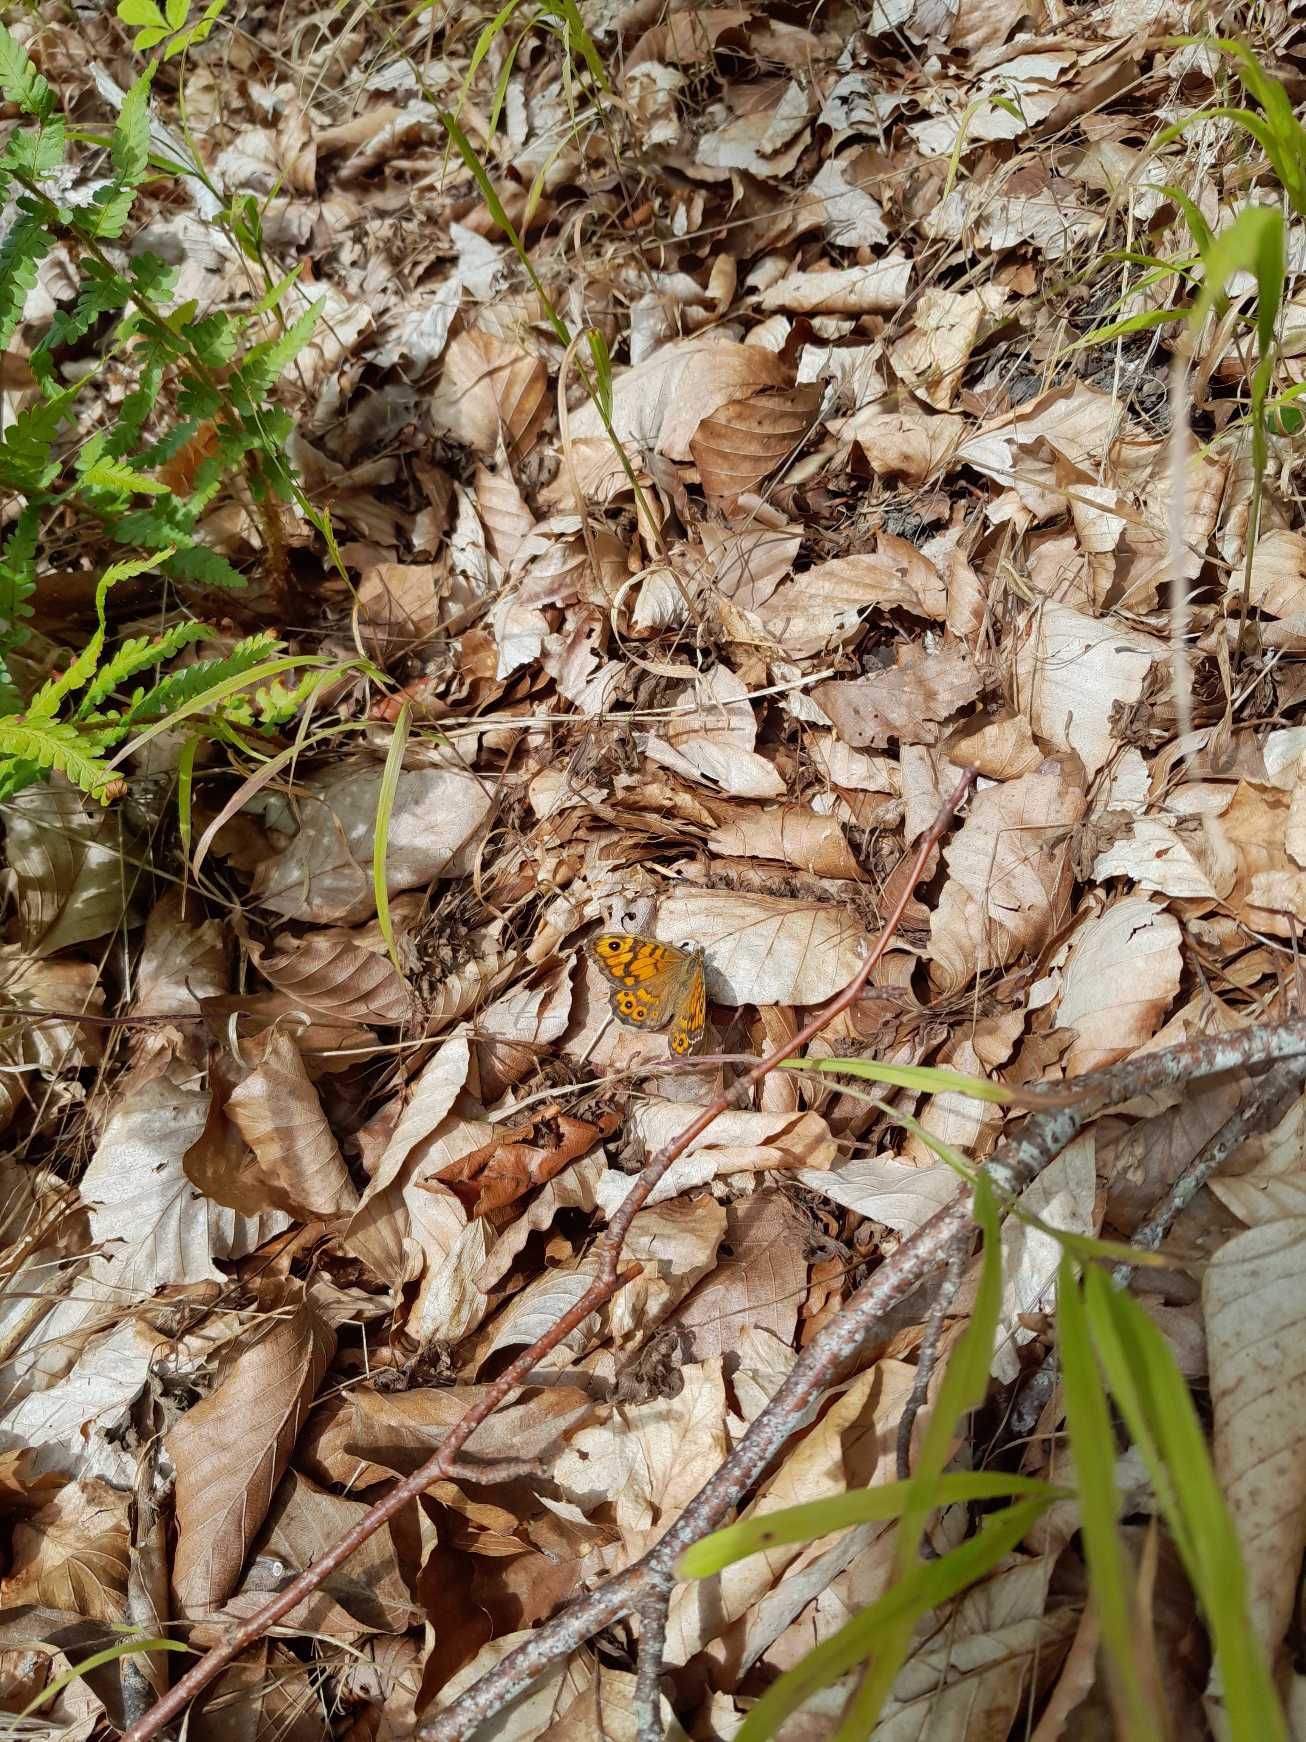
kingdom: Animalia
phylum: Arthropoda
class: Insecta
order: Lepidoptera
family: Nymphalidae
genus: Pararge
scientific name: Pararge Lasiommata megera
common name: Vejrandøje
